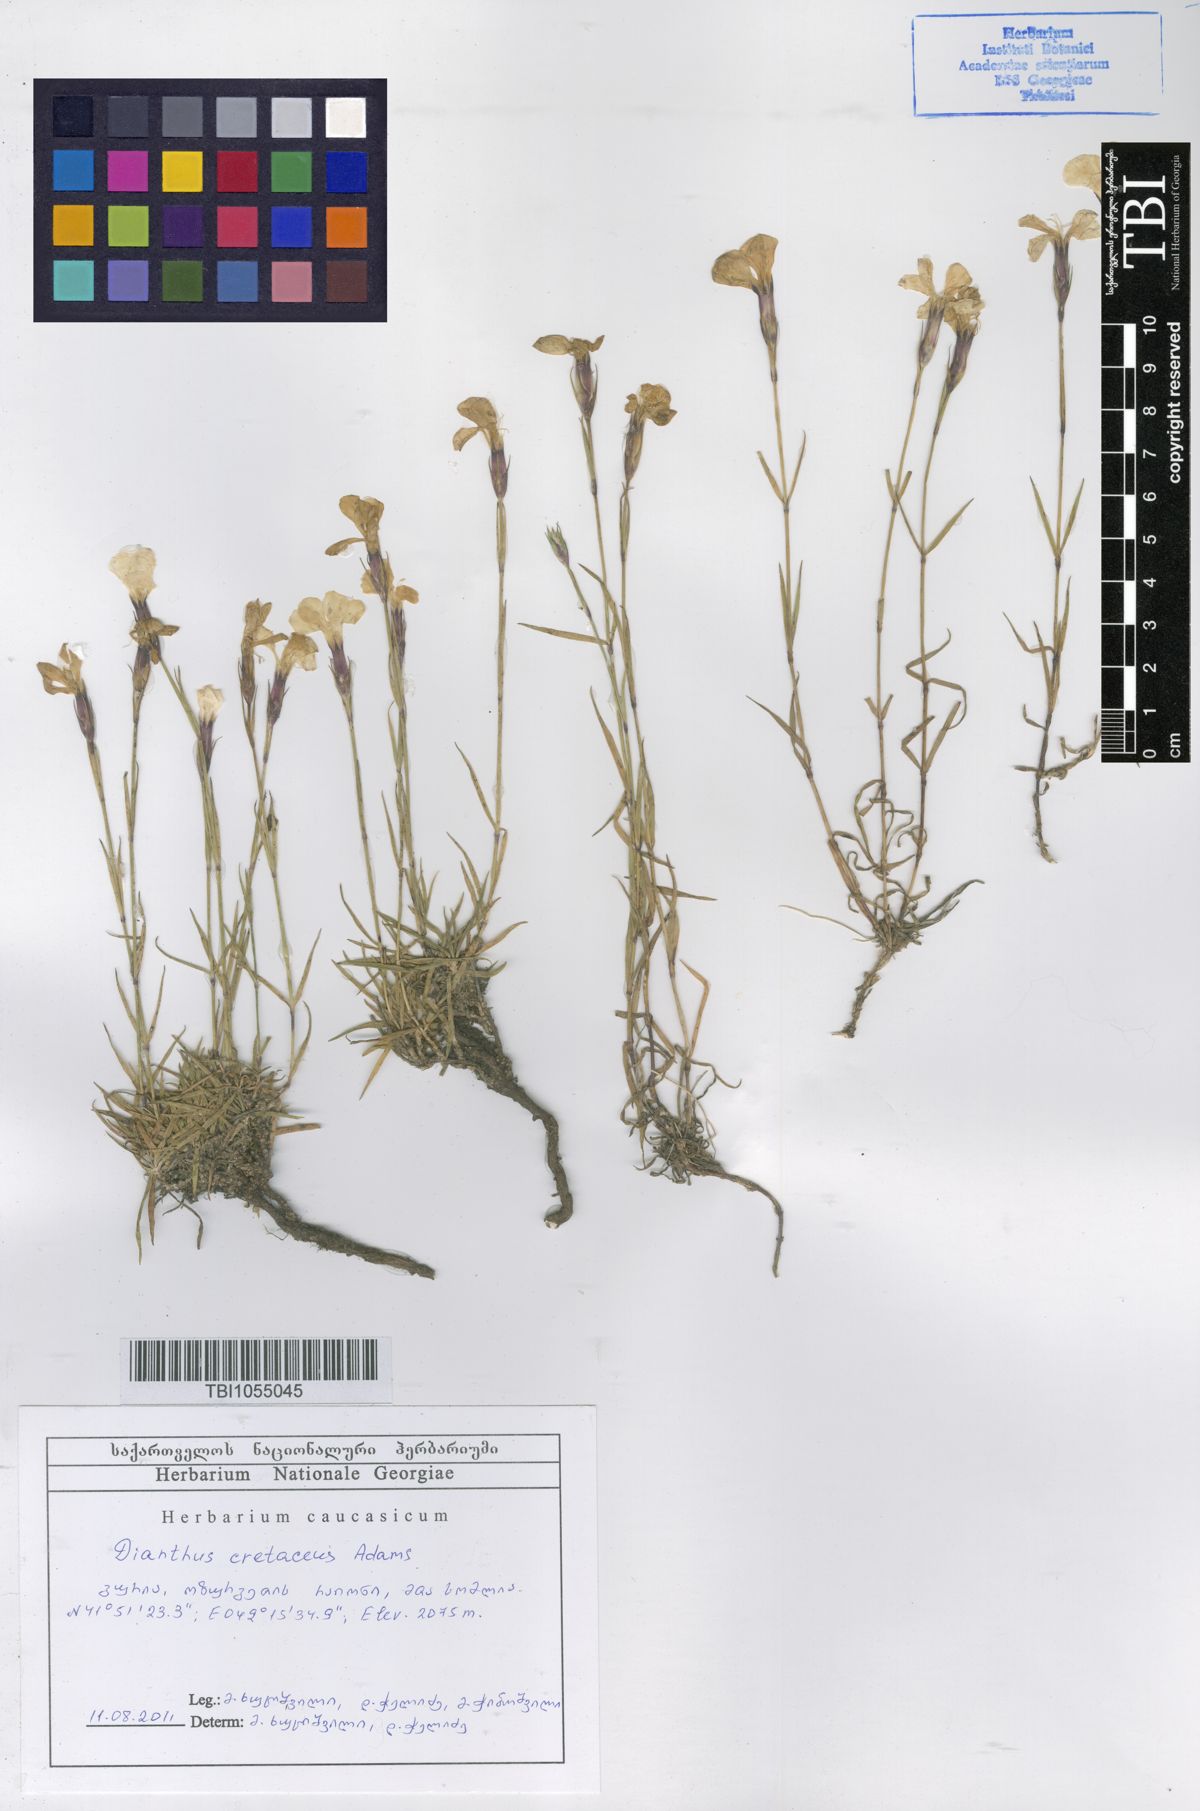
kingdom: Plantae
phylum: Tracheophyta
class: Magnoliopsida
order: Caryophyllales
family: Caryophyllaceae
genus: Dianthus
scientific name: Dianthus cretaceus
